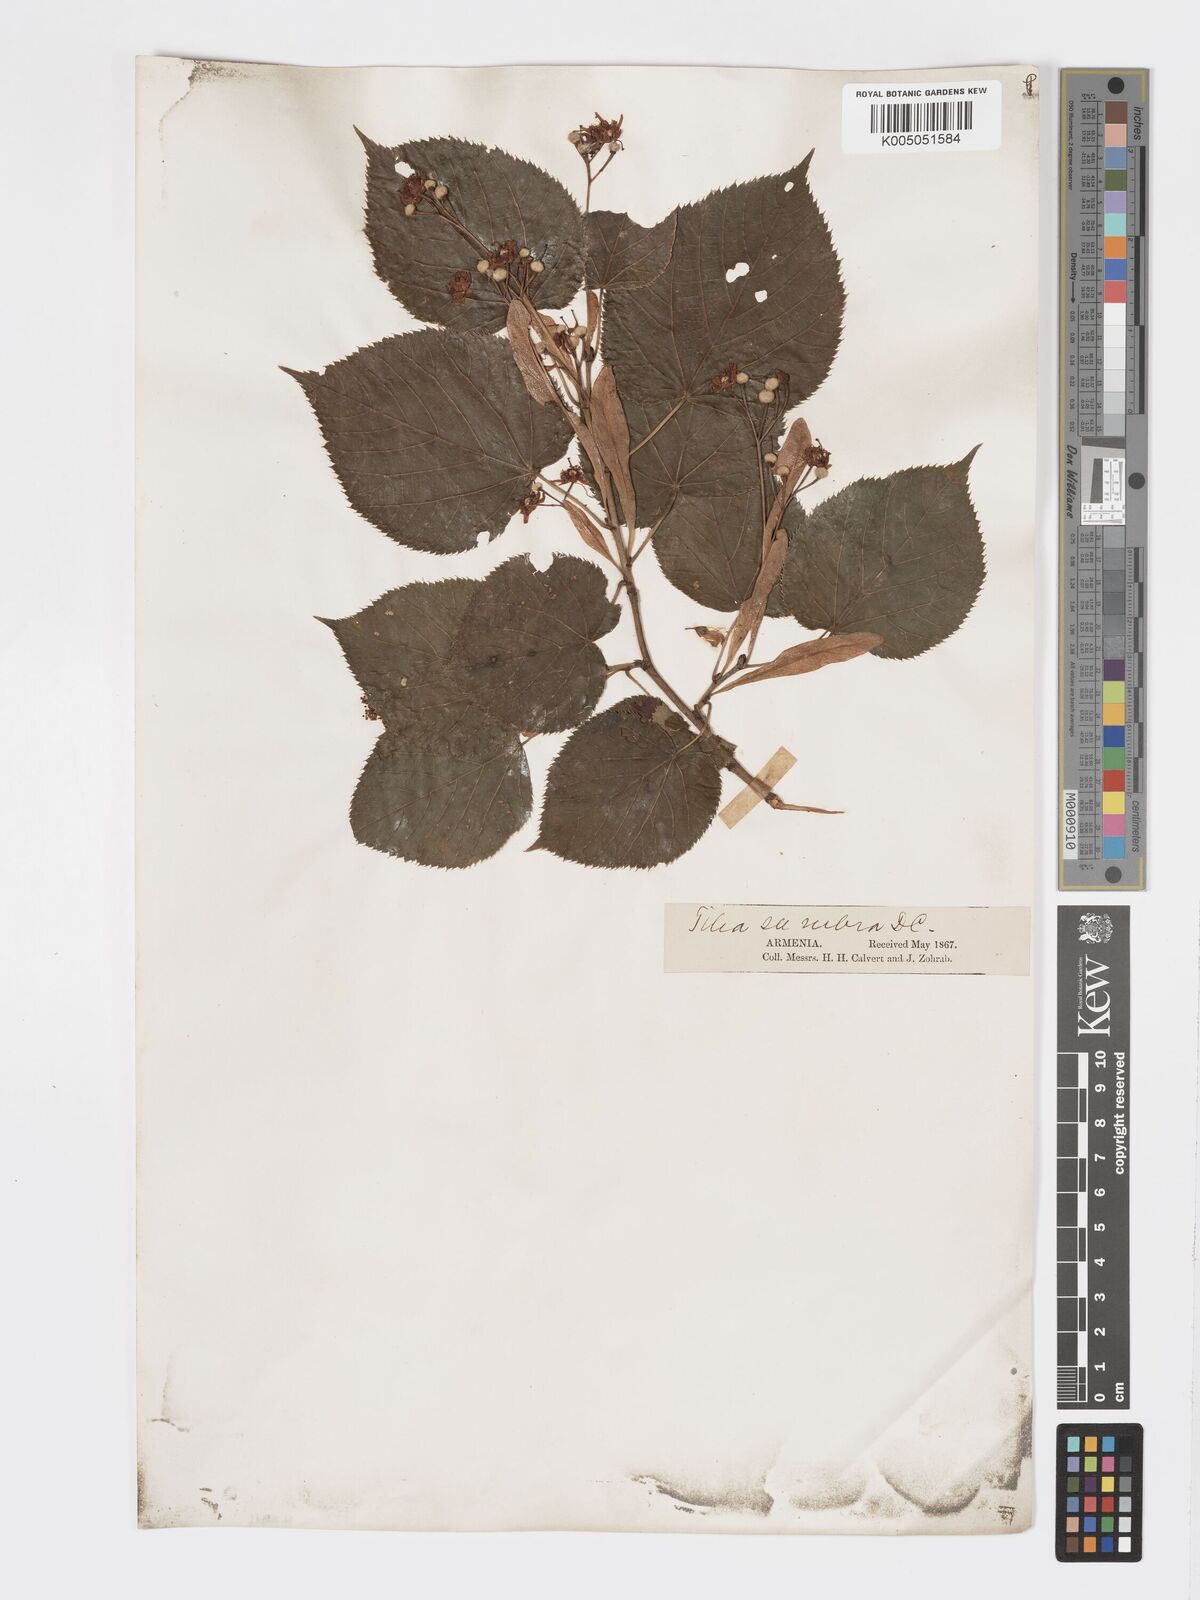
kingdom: Plantae
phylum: Tracheophyta
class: Magnoliopsida
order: Malvales
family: Malvaceae
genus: Tilia
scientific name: Tilia
